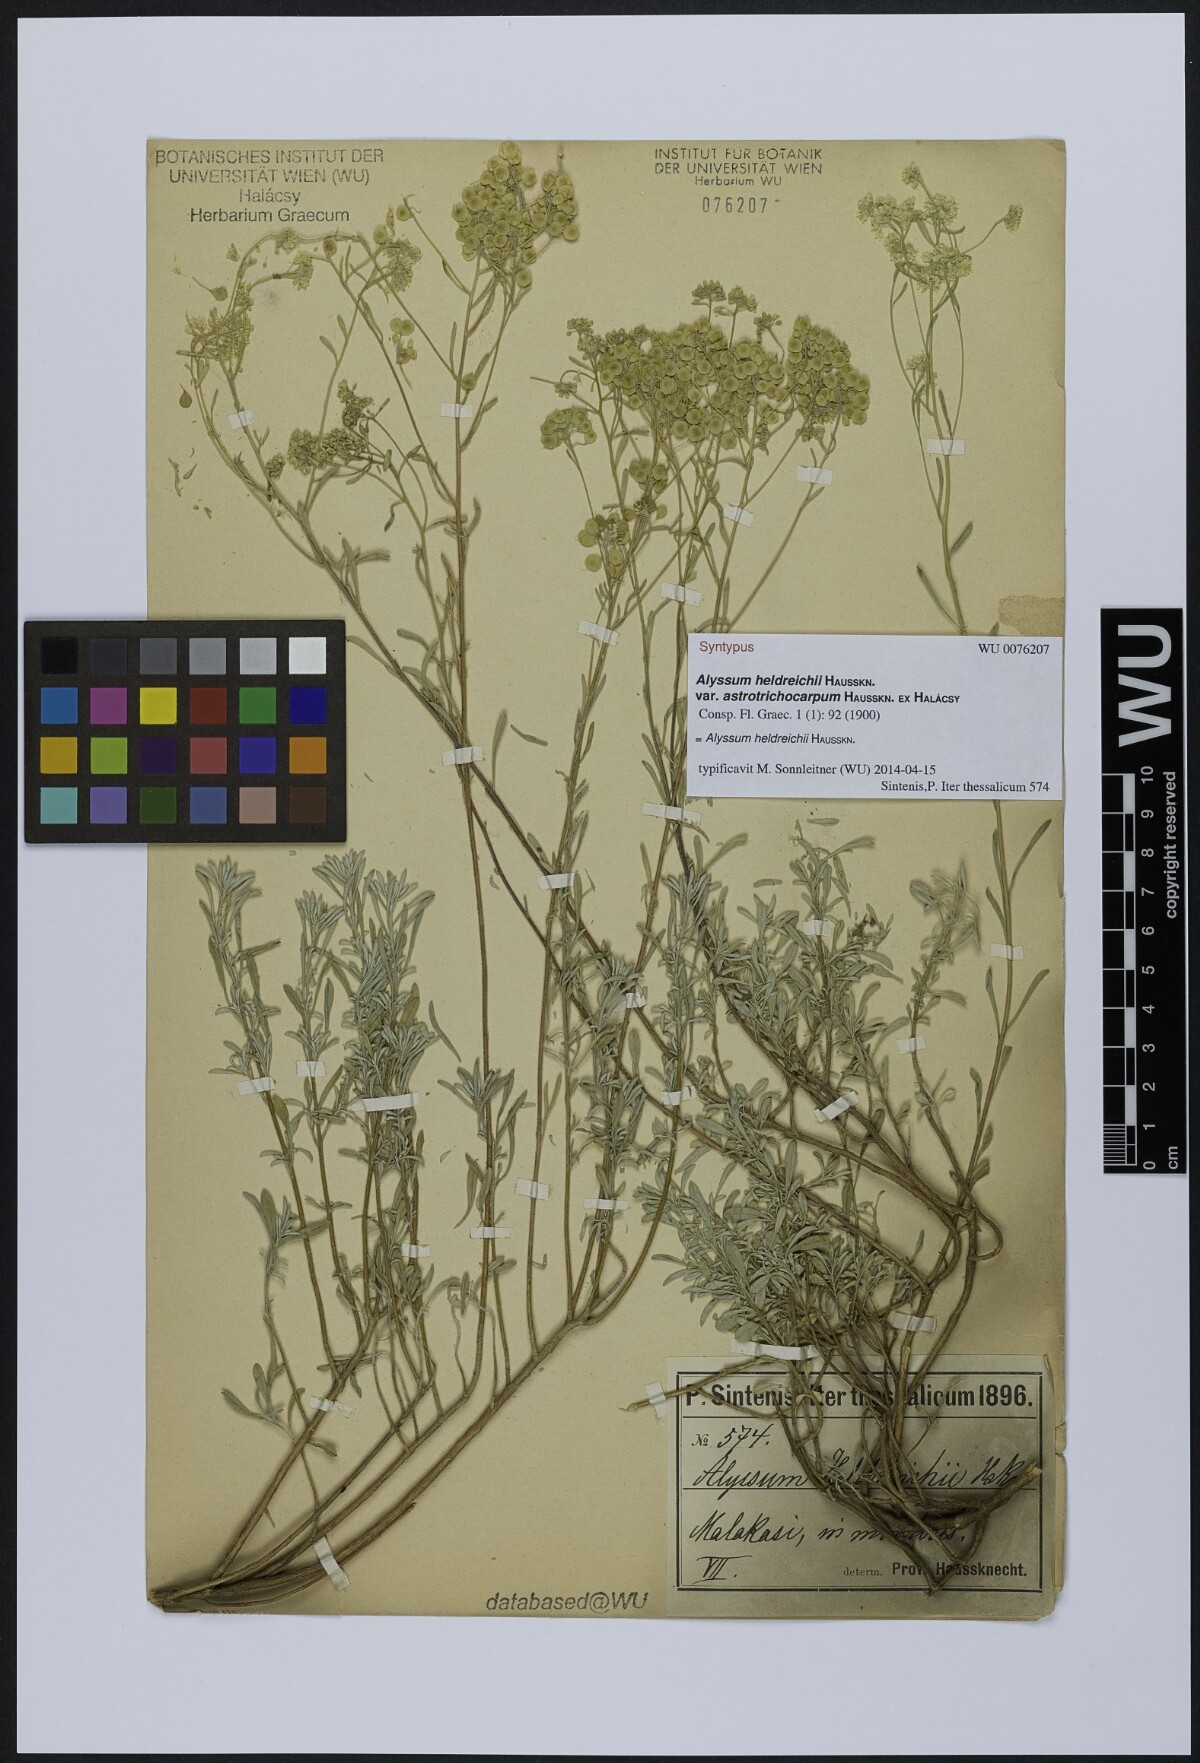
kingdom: Plantae
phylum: Tracheophyta
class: Magnoliopsida
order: Brassicales
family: Brassicaceae
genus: Odontarrhena
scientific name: Odontarrhena heldreichii
